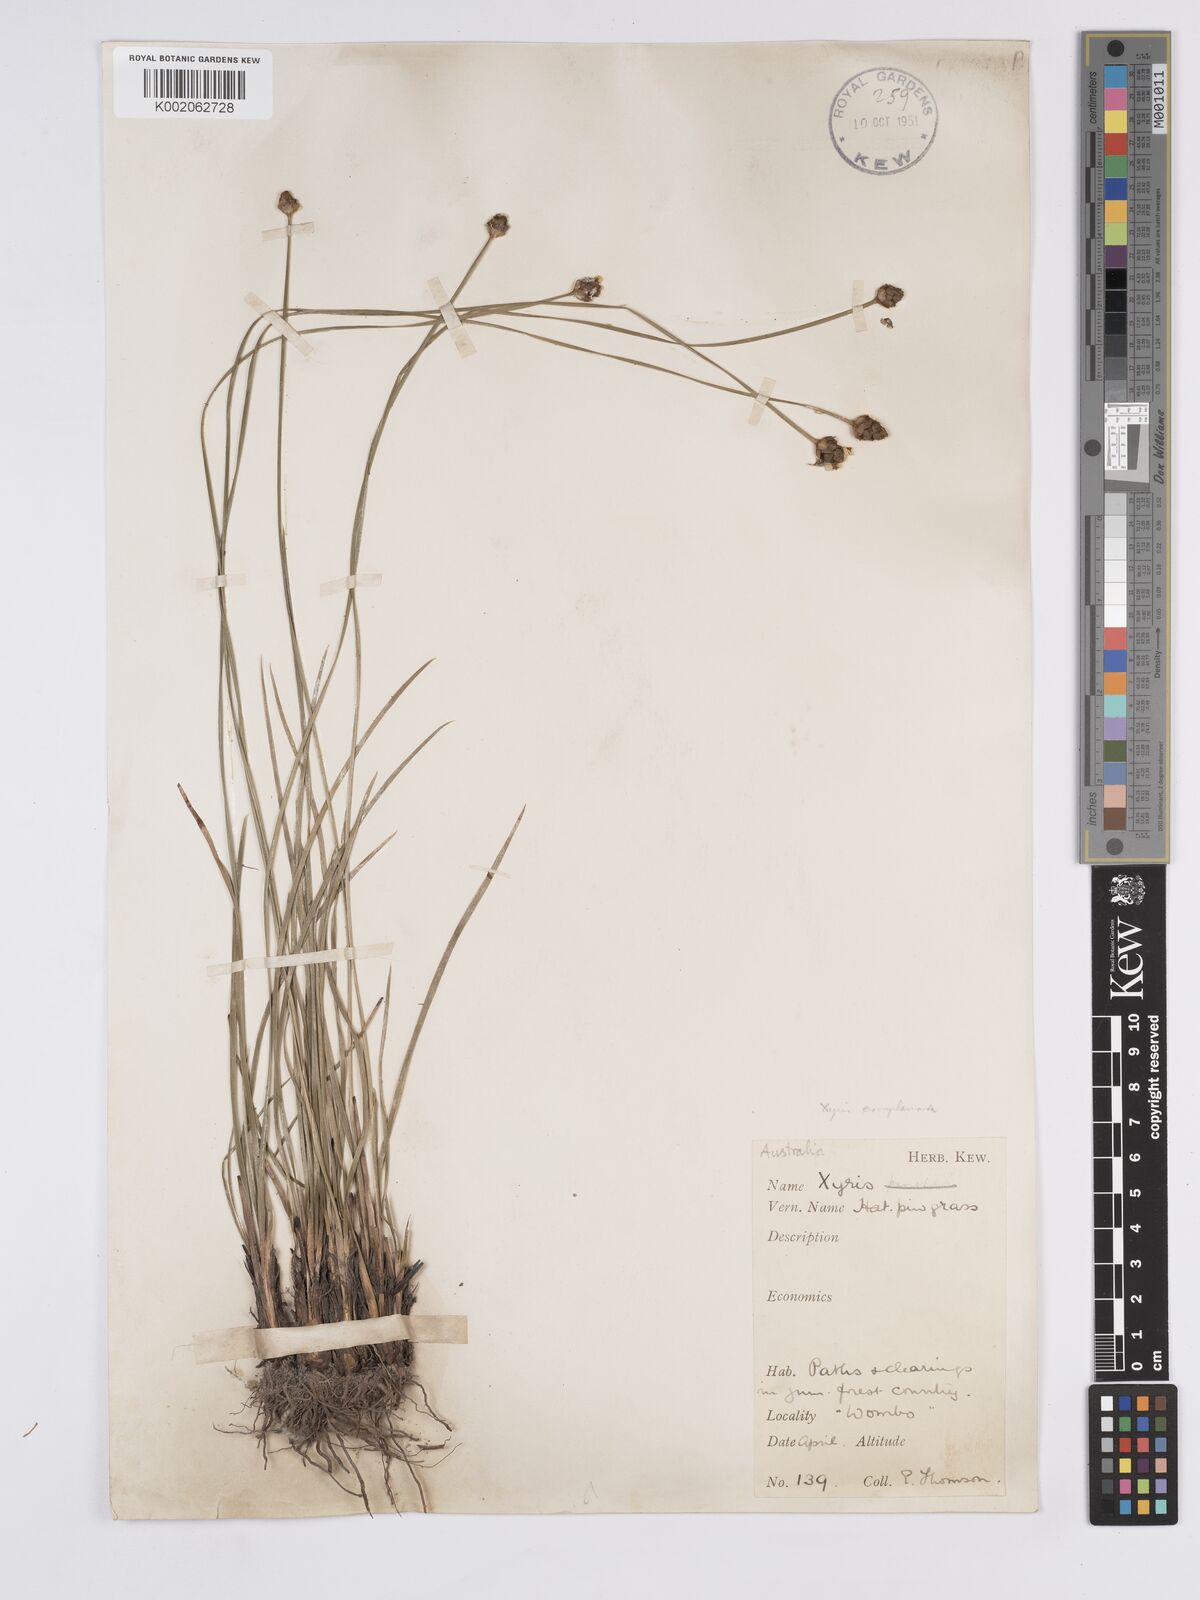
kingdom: Plantae
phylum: Tracheophyta
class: Liliopsida
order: Poales
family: Xyridaceae
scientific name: Xyridaceae
